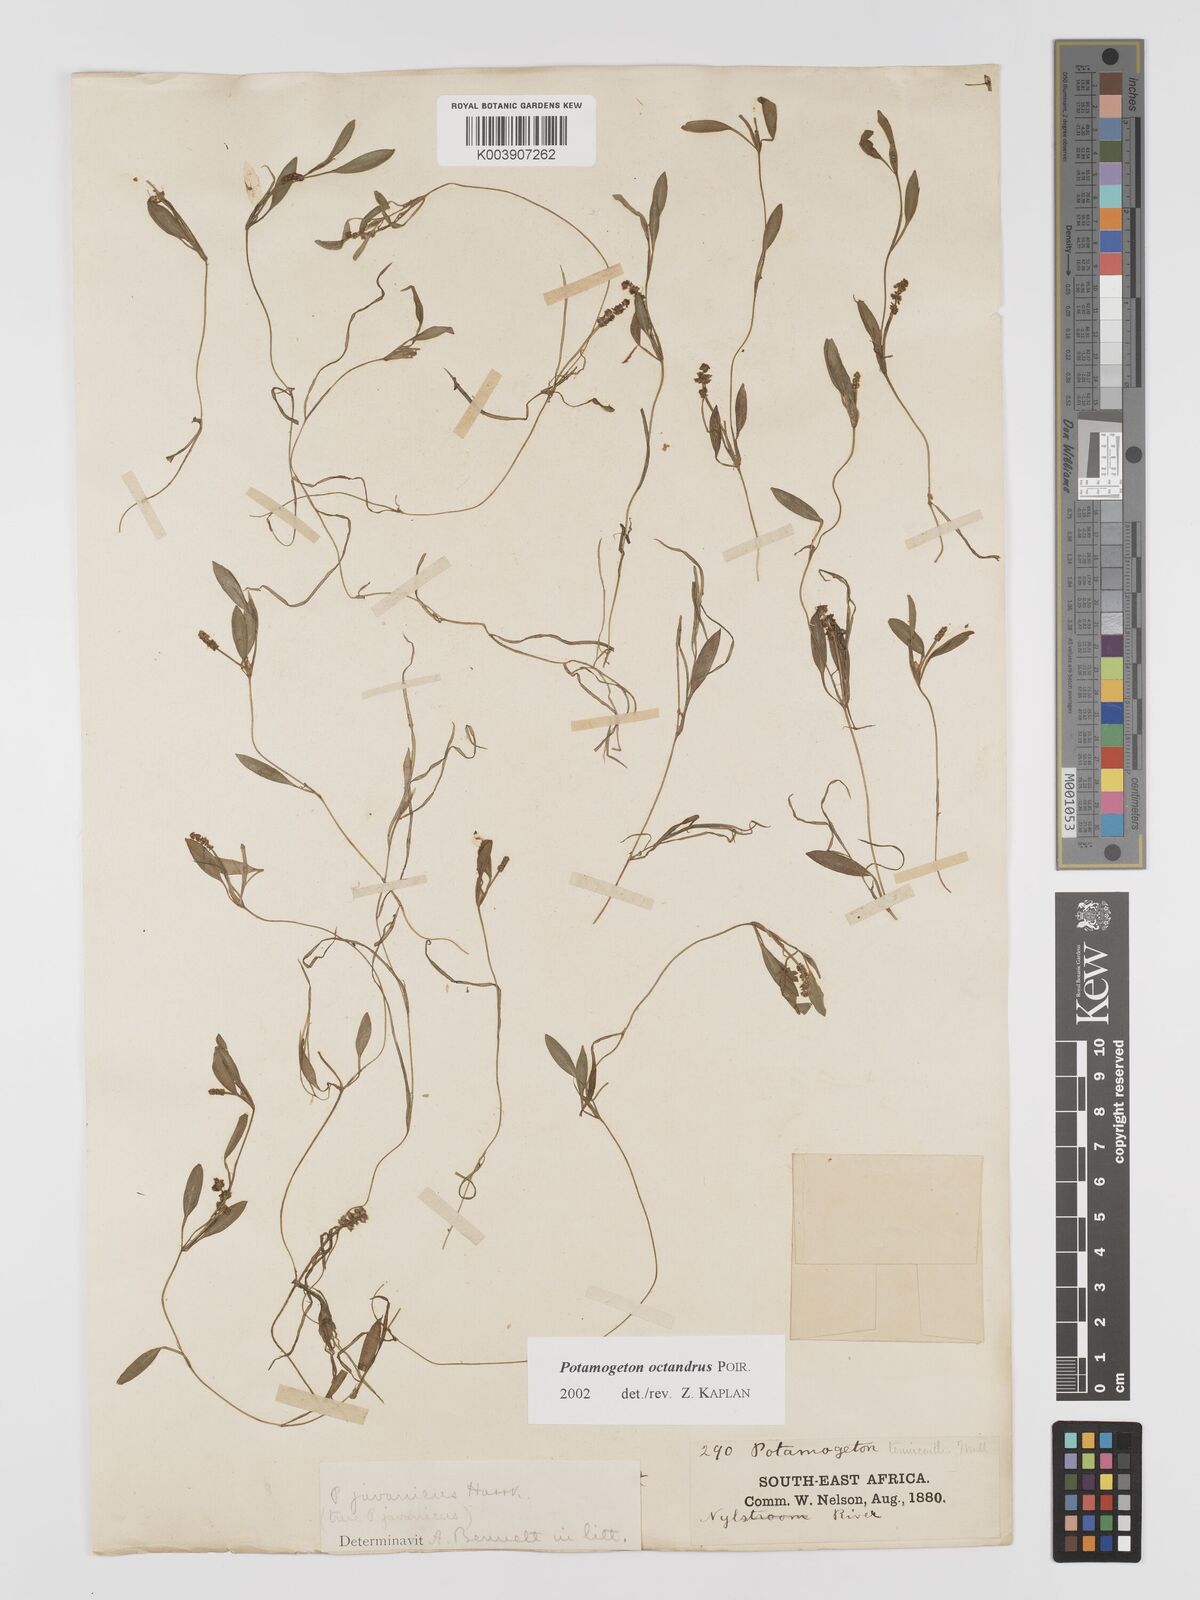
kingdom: Plantae
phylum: Tracheophyta
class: Liliopsida
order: Alismatales
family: Potamogetonaceae
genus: Potamogeton
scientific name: Potamogeton tenuicaulis
